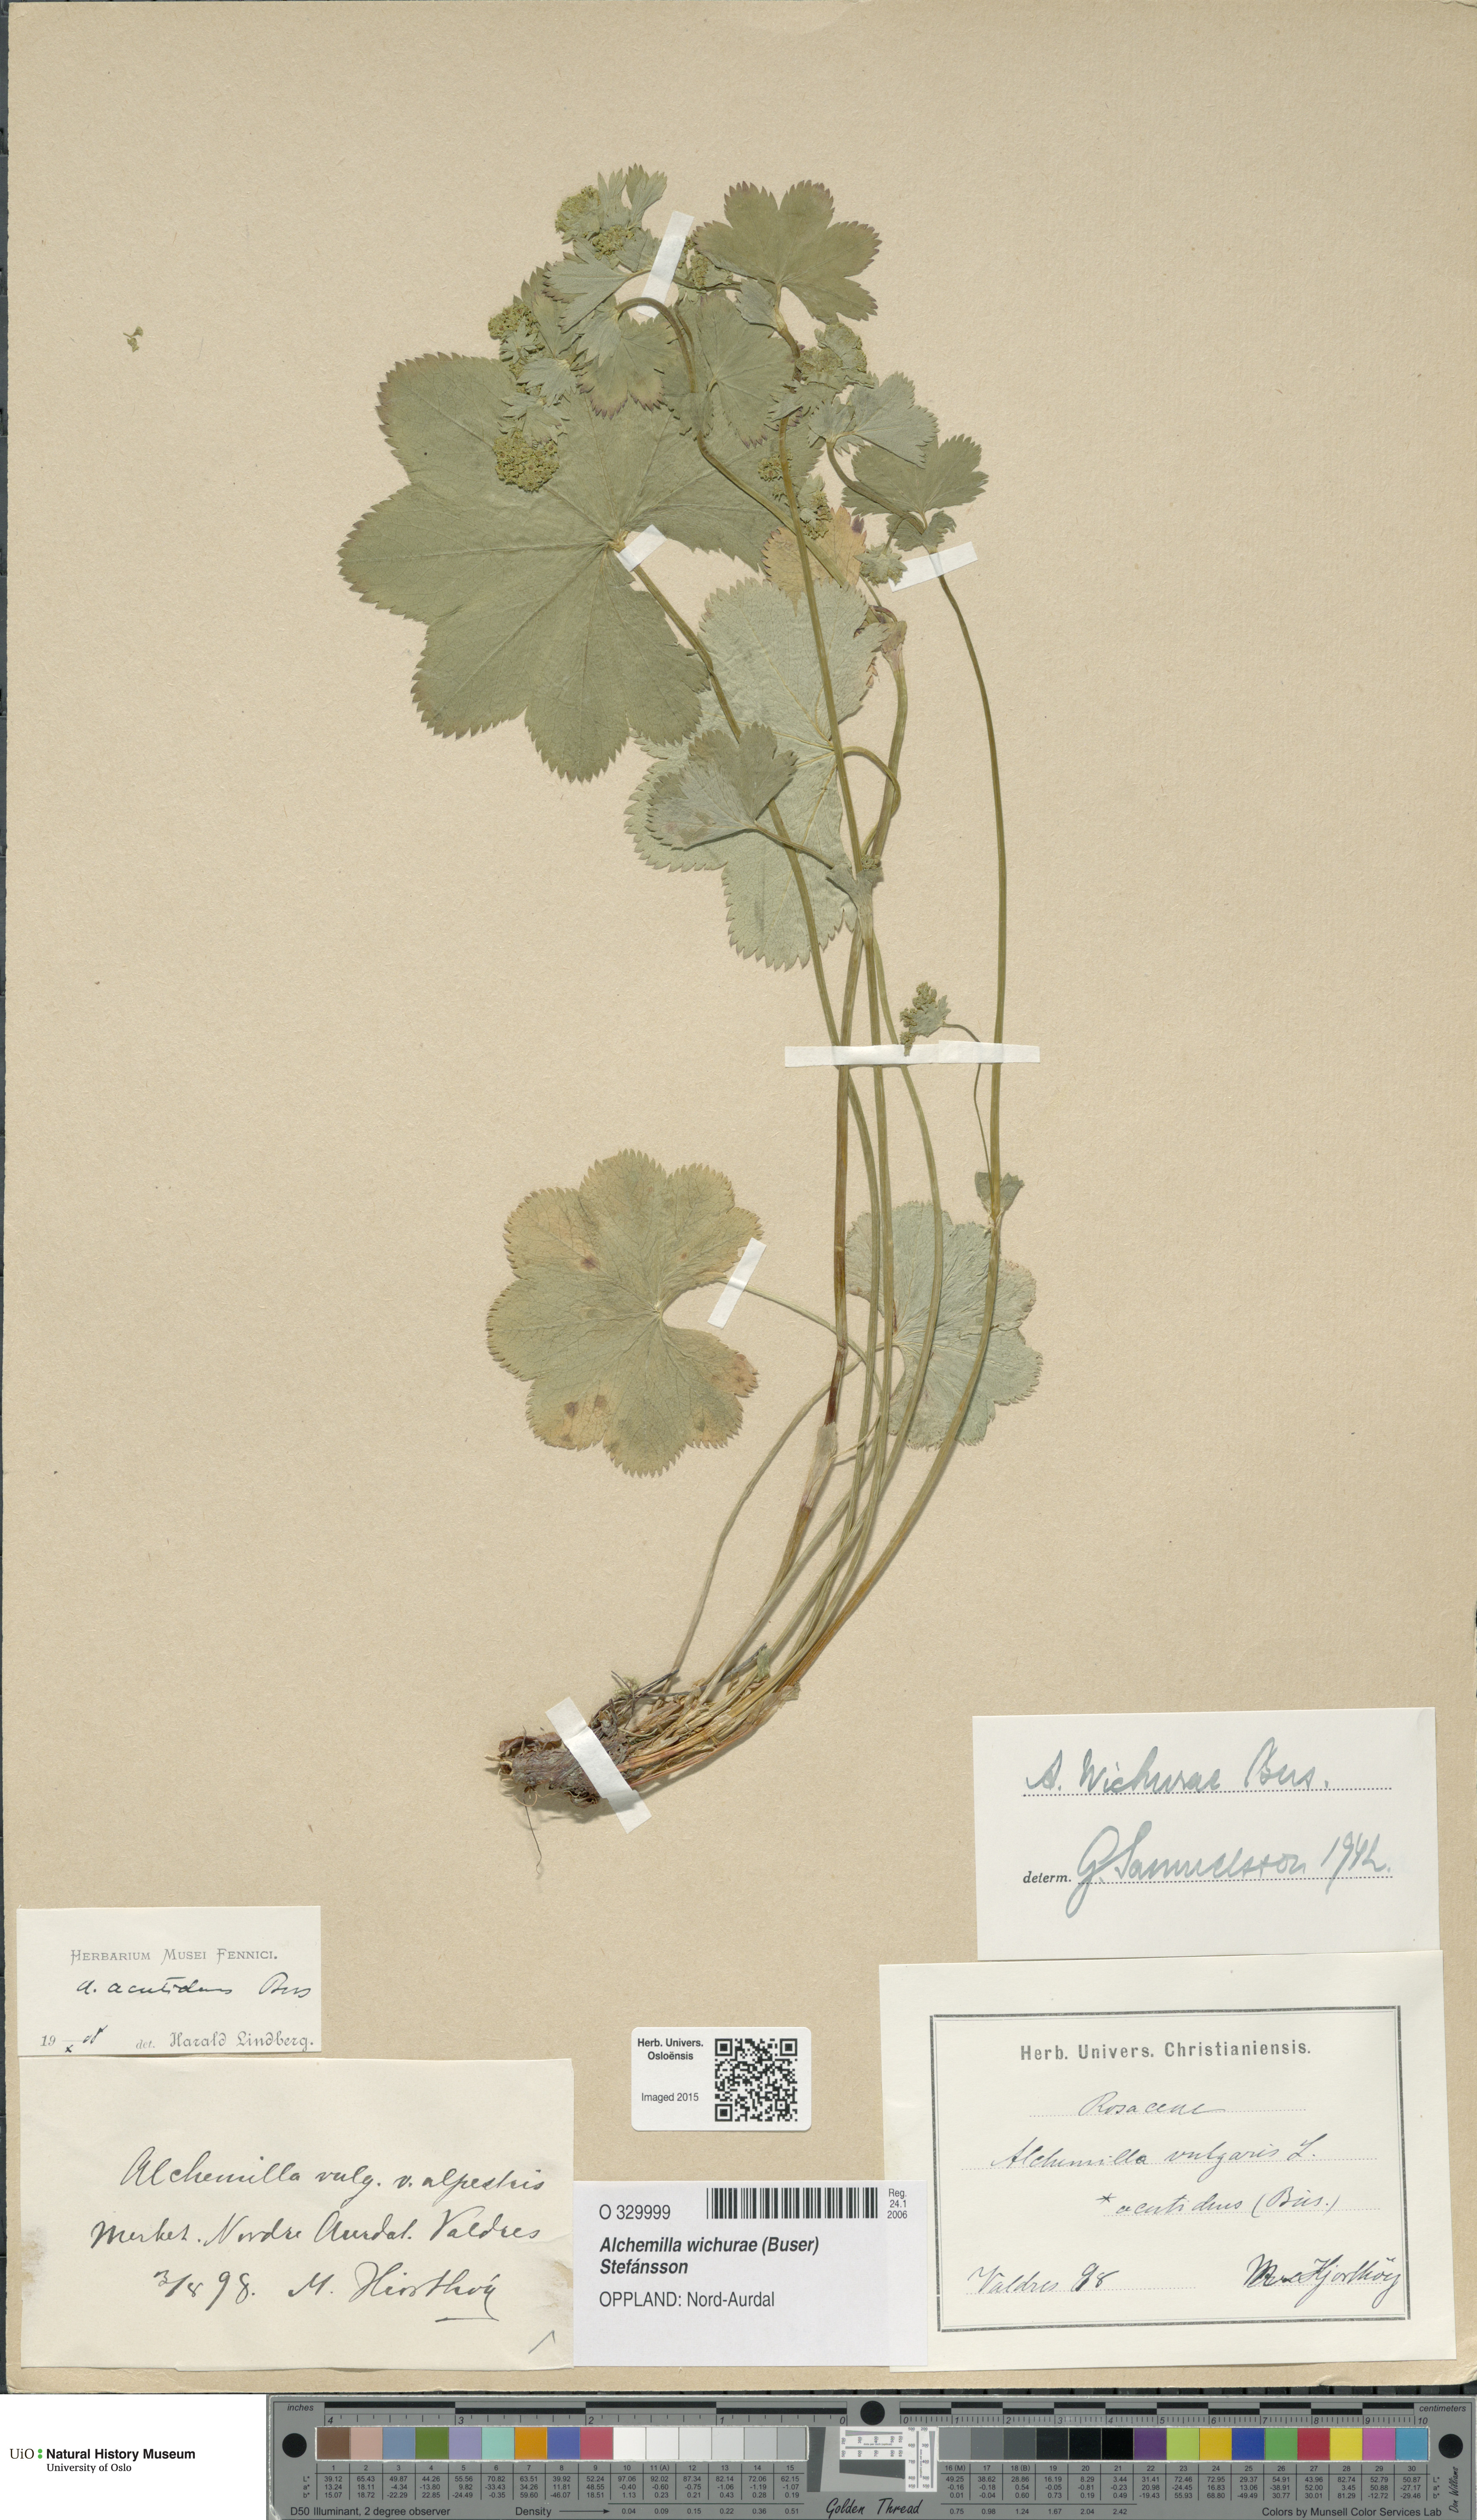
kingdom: Plantae
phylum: Tracheophyta
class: Magnoliopsida
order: Rosales
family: Rosaceae
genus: Alchemilla
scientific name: Alchemilla wichurae
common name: Rock lady's mantle
